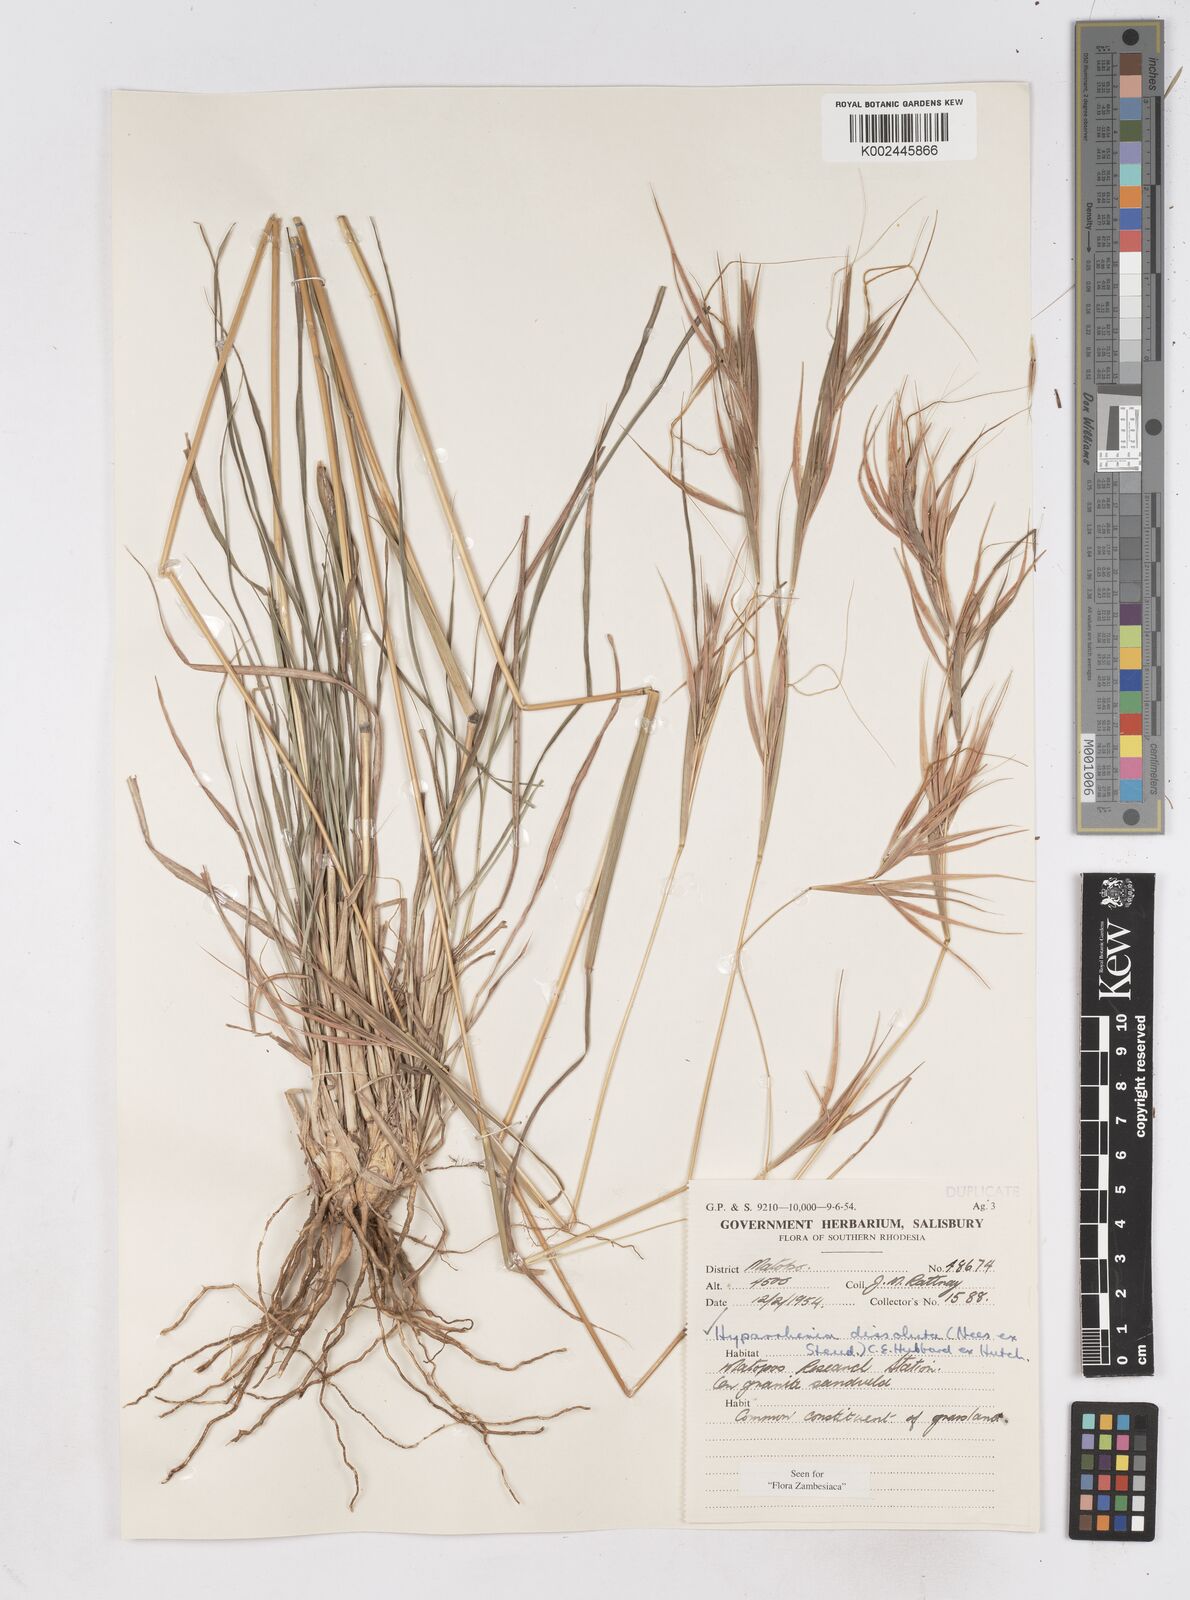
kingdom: Plantae
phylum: Tracheophyta
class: Liliopsida
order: Poales
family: Poaceae
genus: Hyperthelia
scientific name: Hyperthelia dissoluta
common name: Yellow thatching grass
